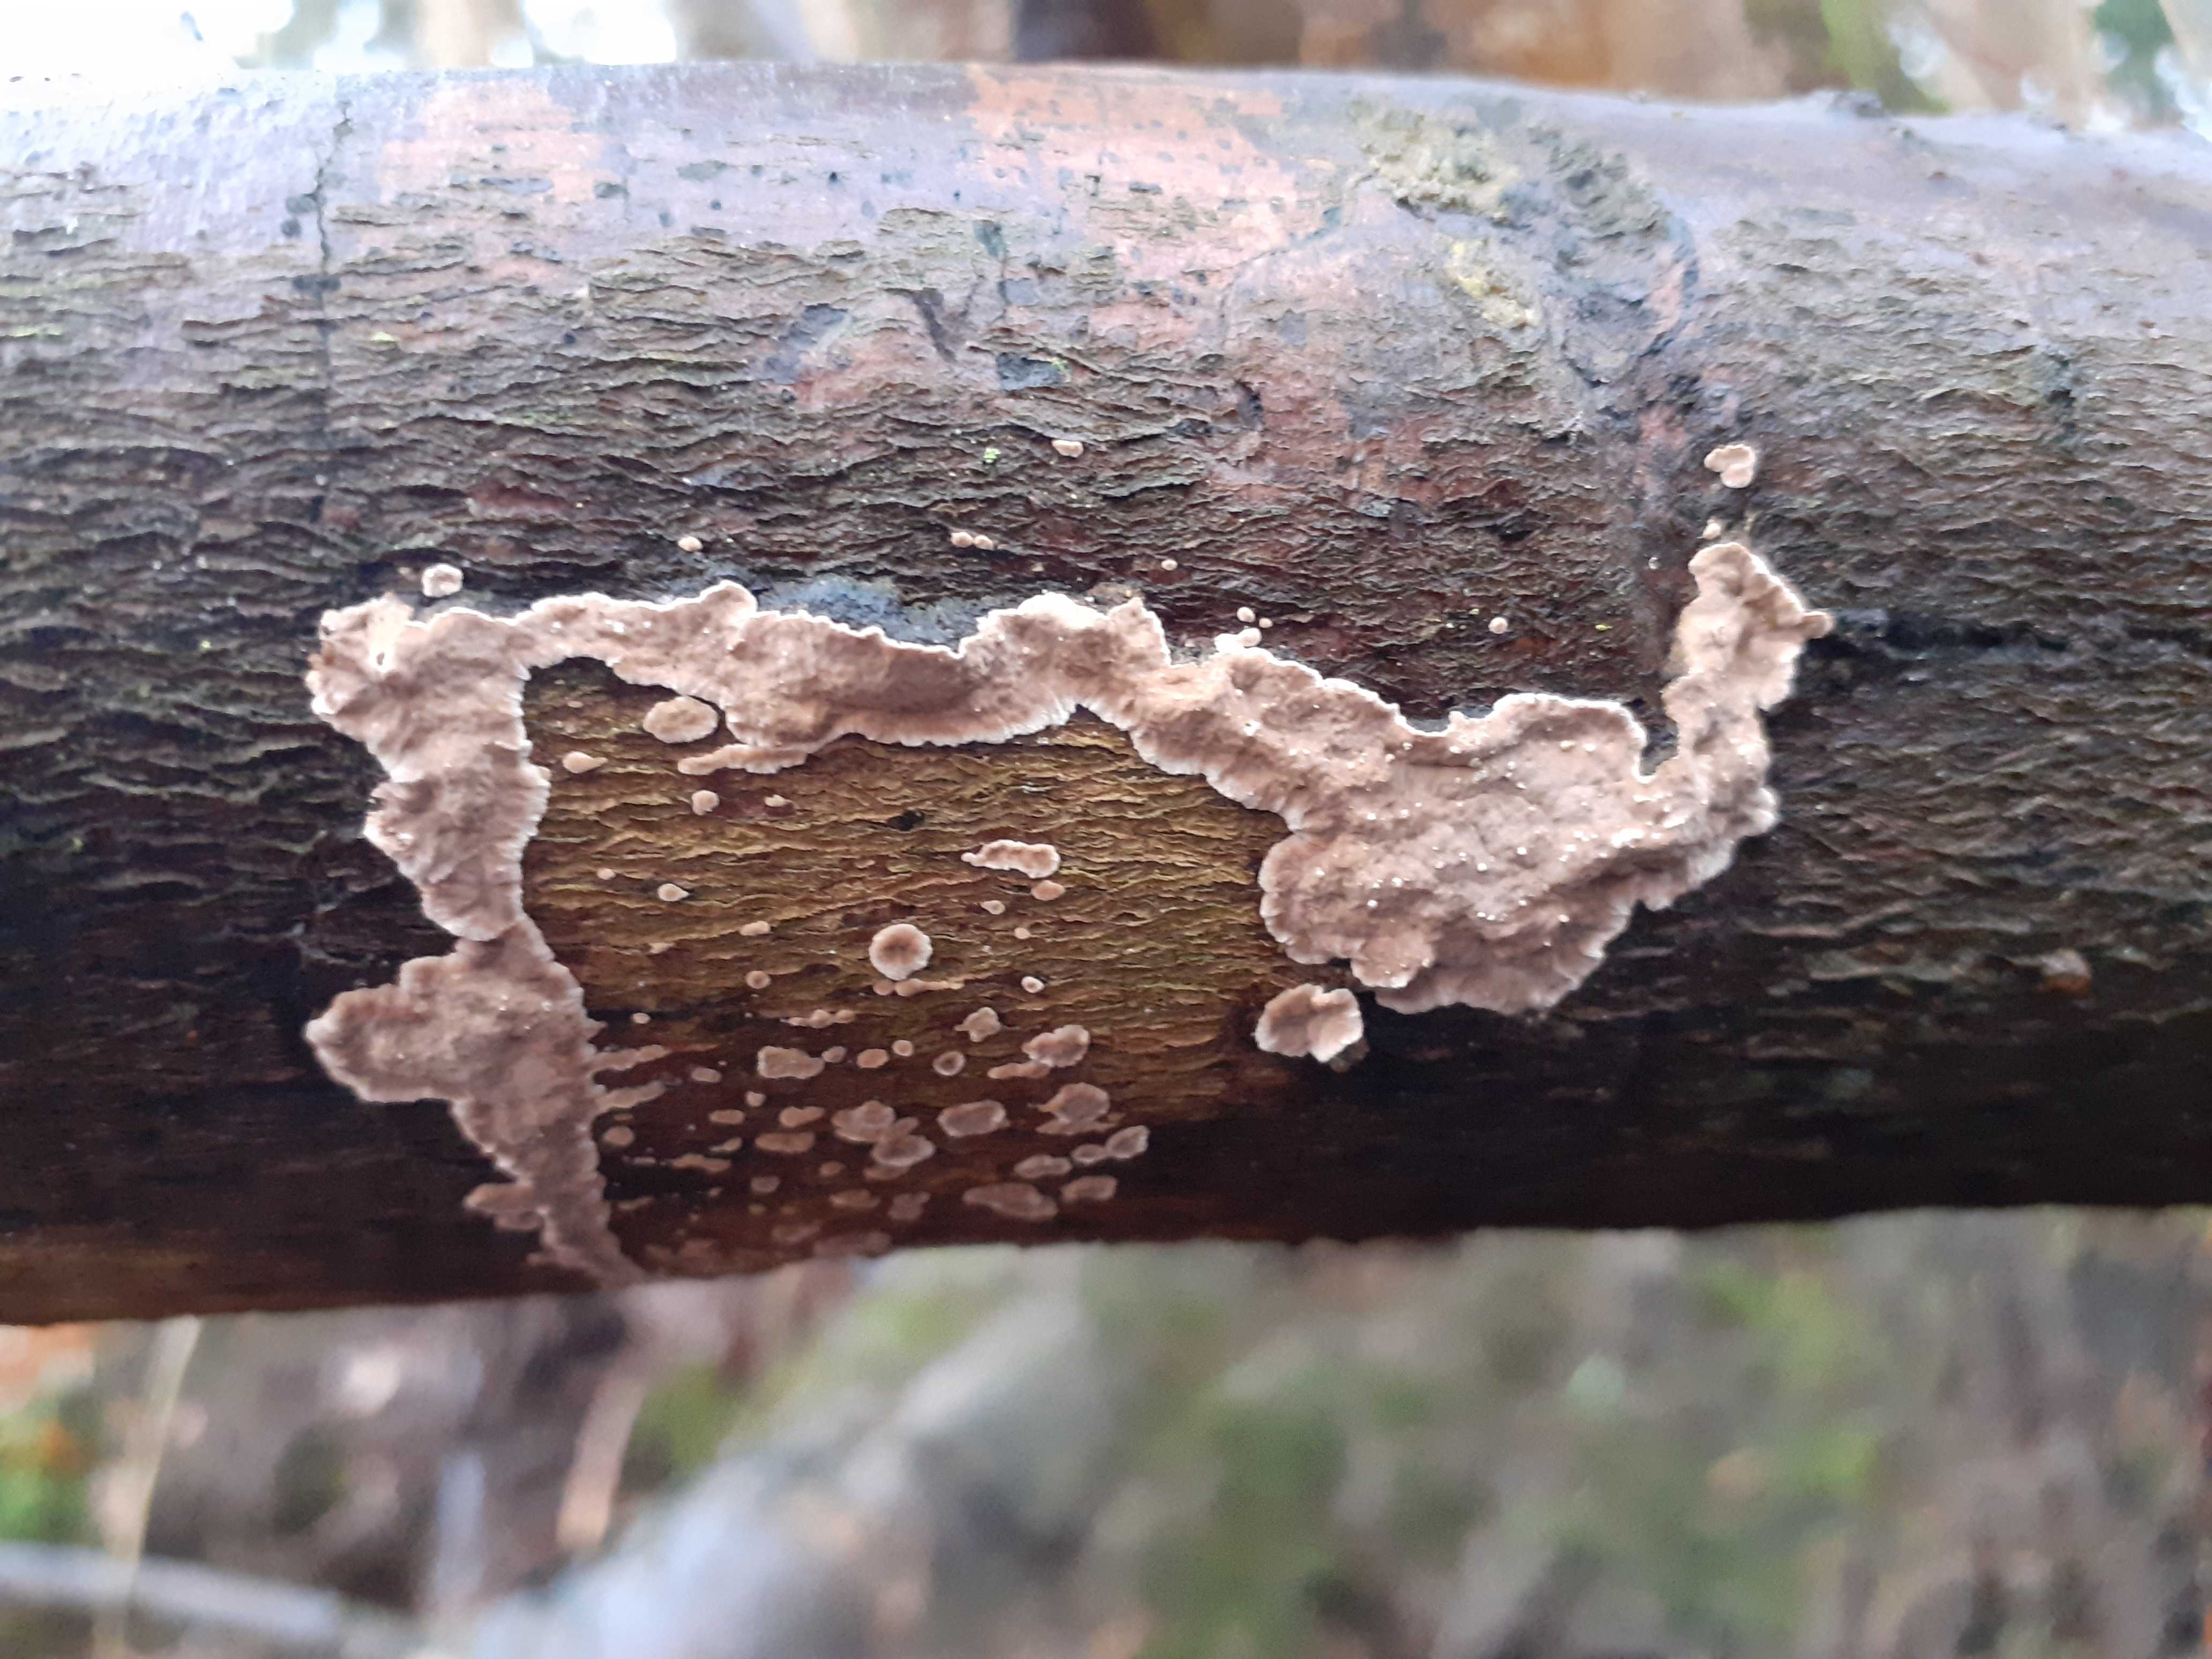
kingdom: Fungi
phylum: Basidiomycota
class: Agaricomycetes
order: Russulales
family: Echinodontiaceae
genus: Amylostereum
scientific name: Amylostereum chailletii
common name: gran-lædersvamp
